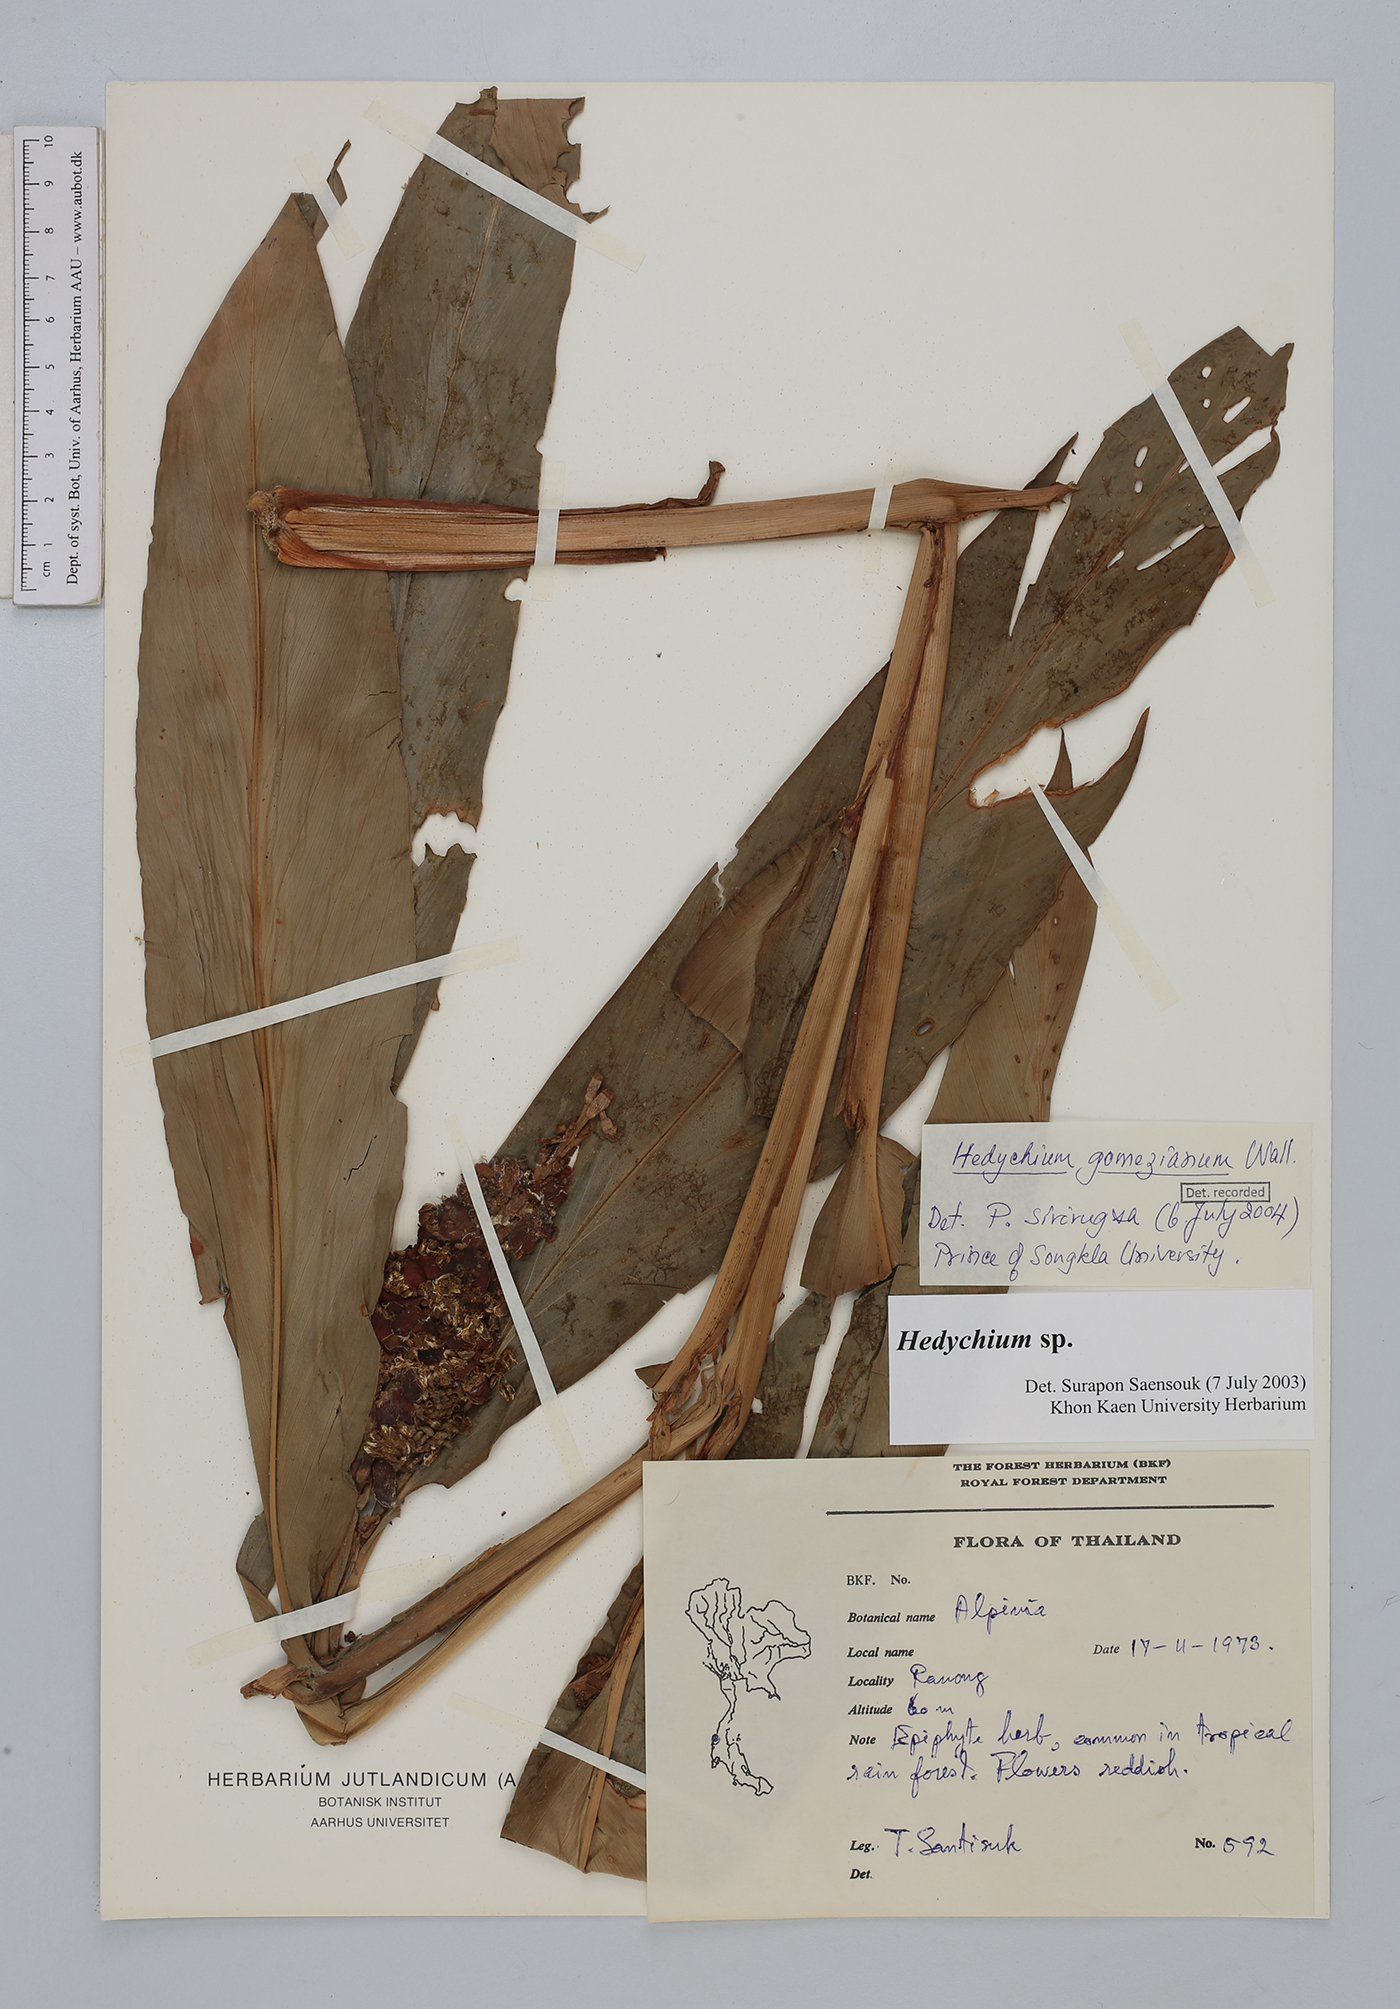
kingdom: Plantae
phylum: Tracheophyta
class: Liliopsida
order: Zingiberales
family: Zingiberaceae
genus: Hedychium
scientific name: Hedychium gomezianum
